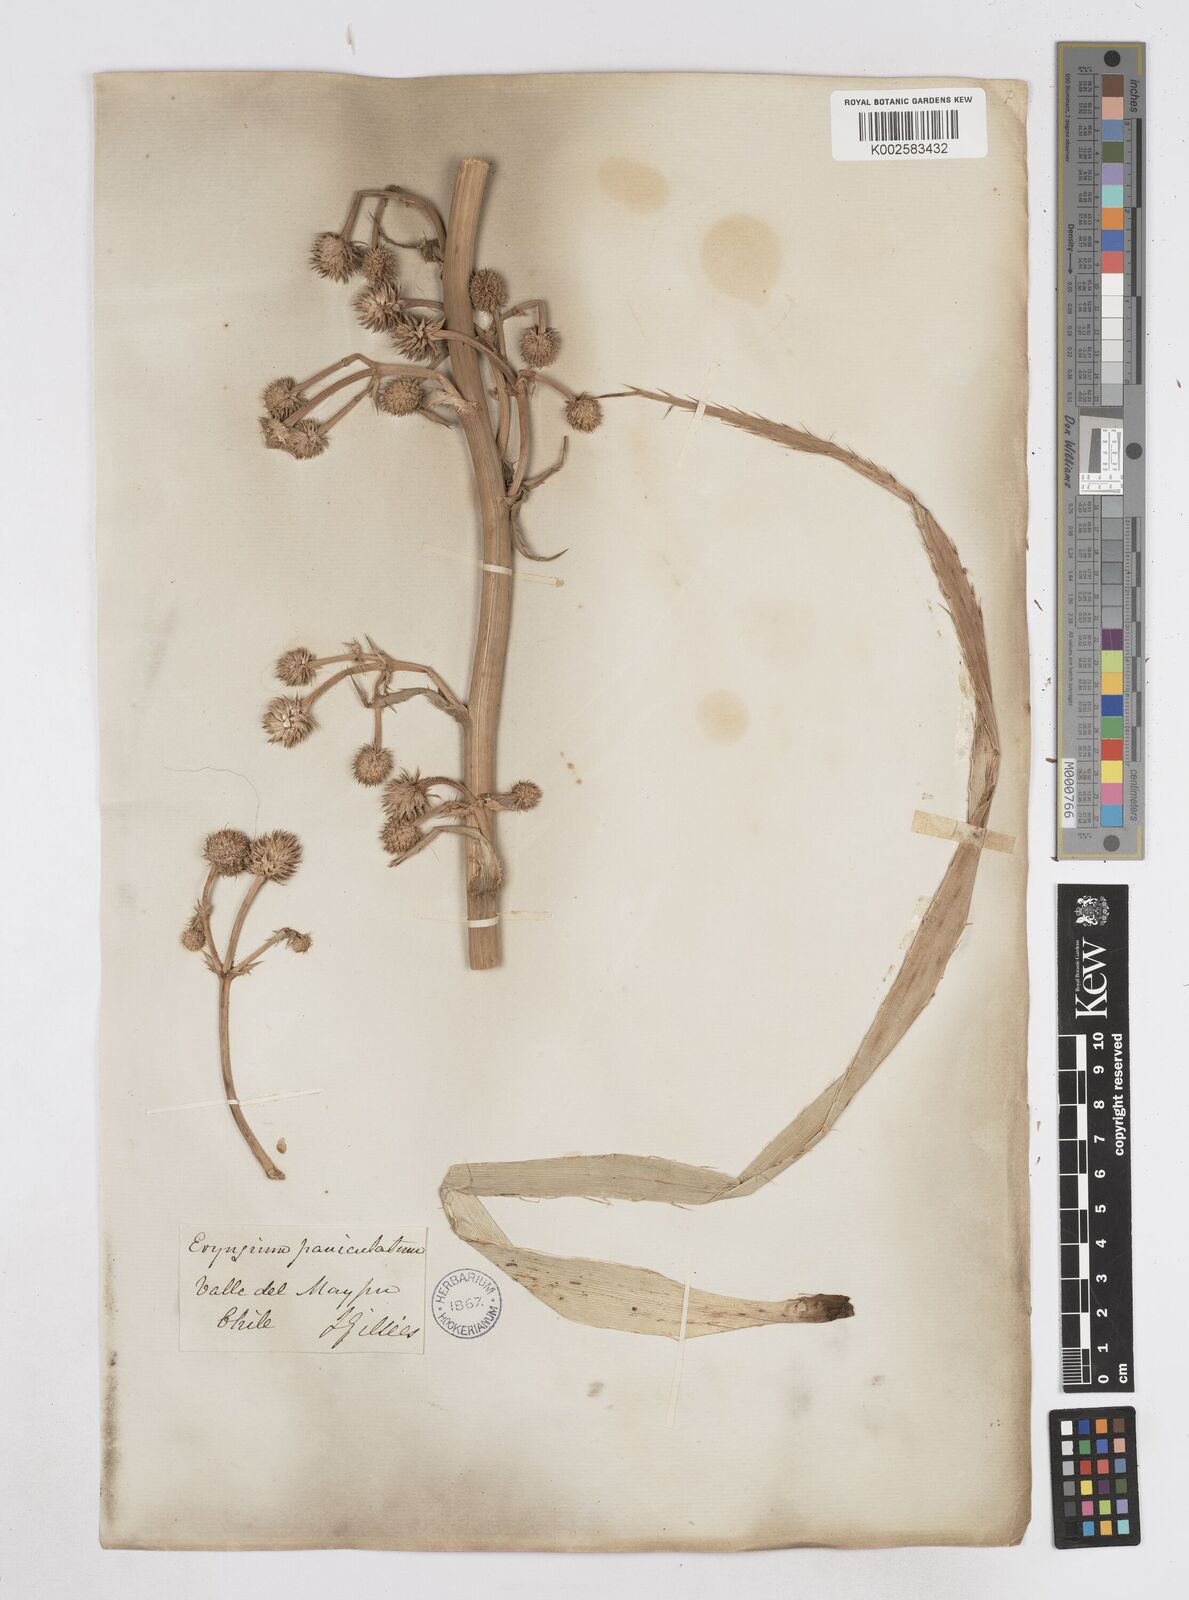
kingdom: Plantae
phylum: Tracheophyta
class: Magnoliopsida
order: Apiales
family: Apiaceae
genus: Eryngium
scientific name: Eryngium humboldtii
